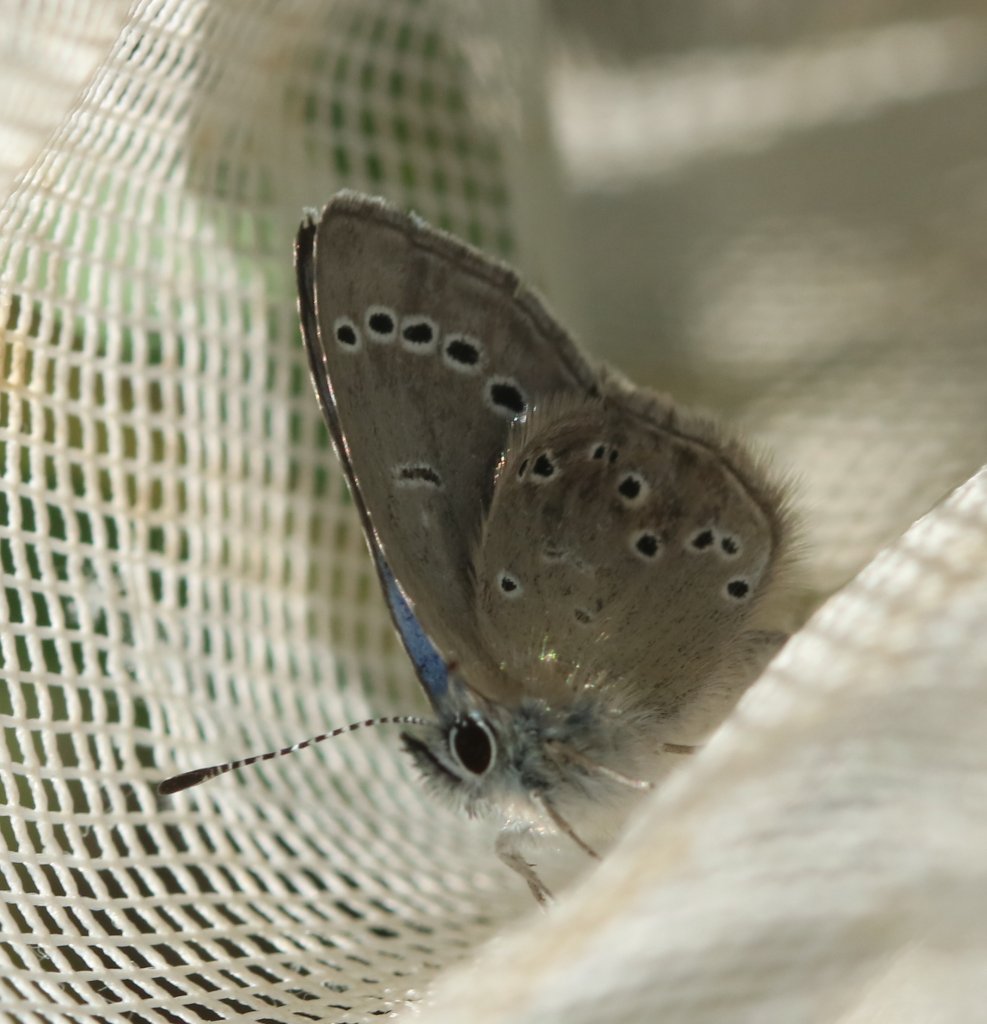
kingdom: Animalia
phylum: Arthropoda
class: Insecta
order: Lepidoptera
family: Lycaenidae
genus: Glaucopsyche
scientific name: Glaucopsyche lygdamus
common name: Silvery Blue
